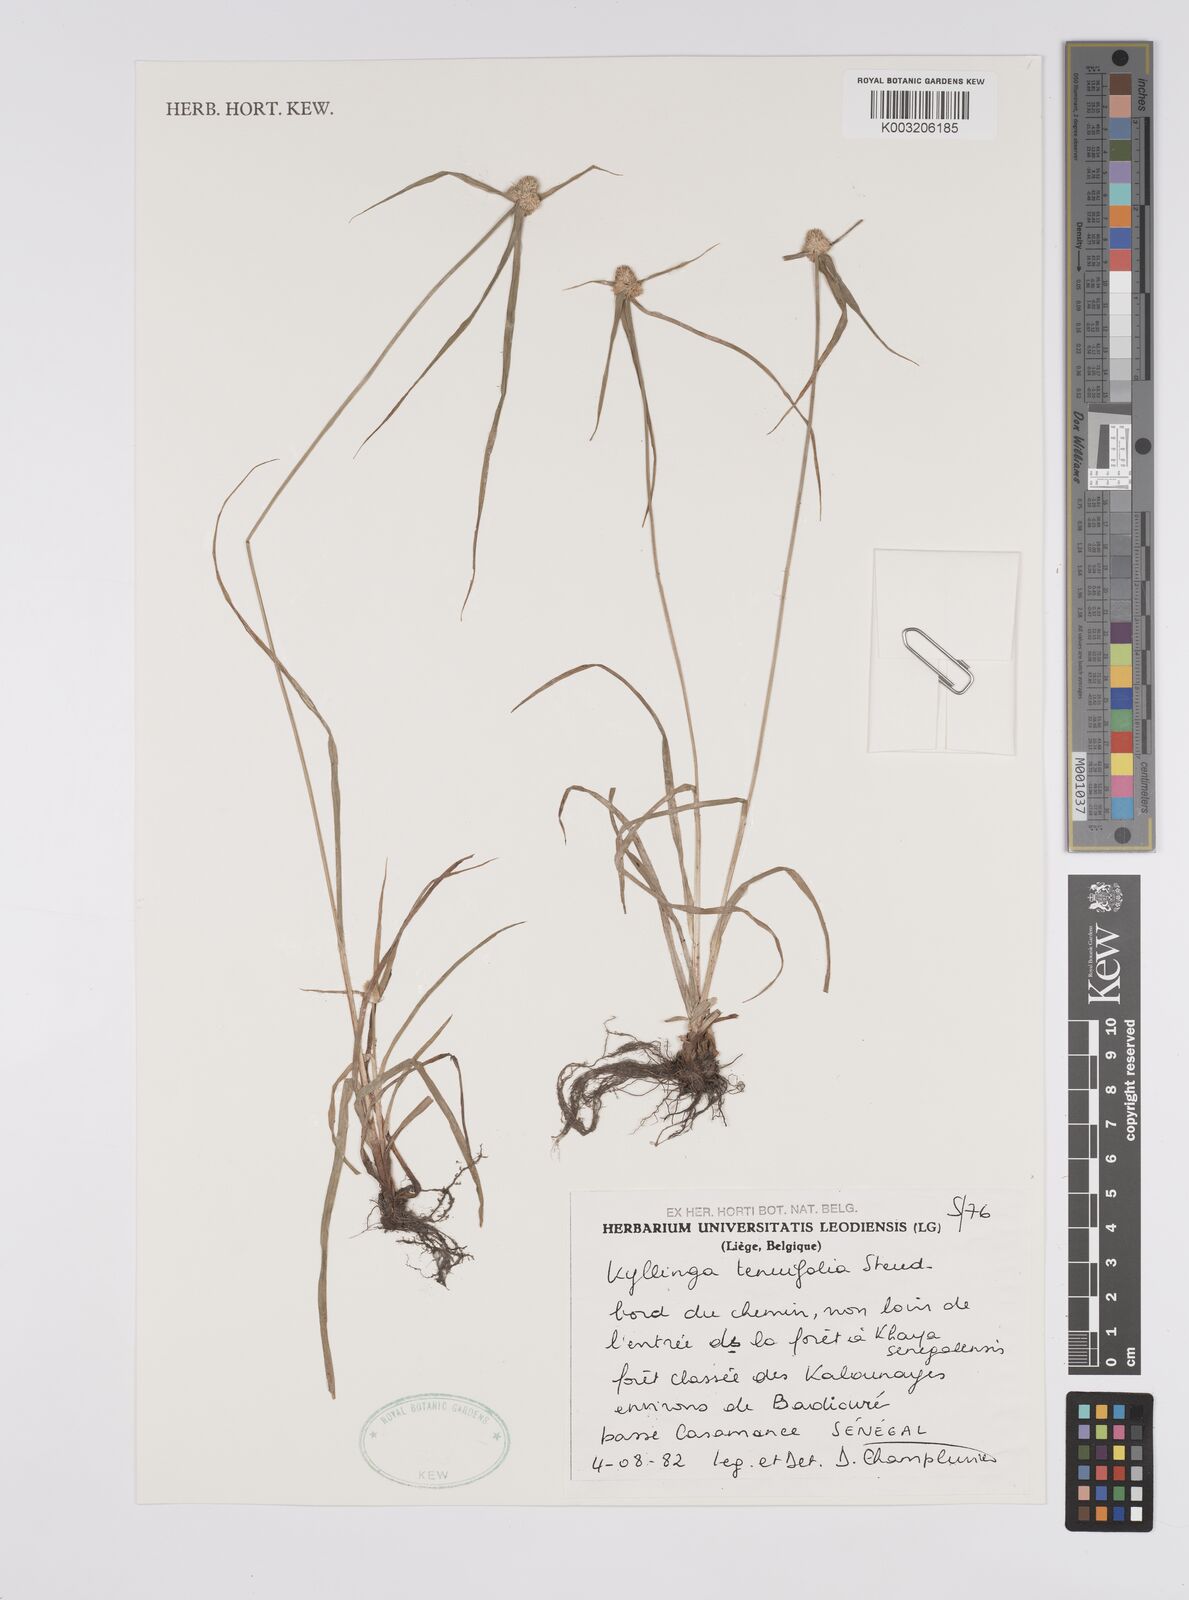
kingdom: Plantae
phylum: Tracheophyta
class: Liliopsida
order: Poales
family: Cyperaceae
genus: Cyperus
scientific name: Cyperus
